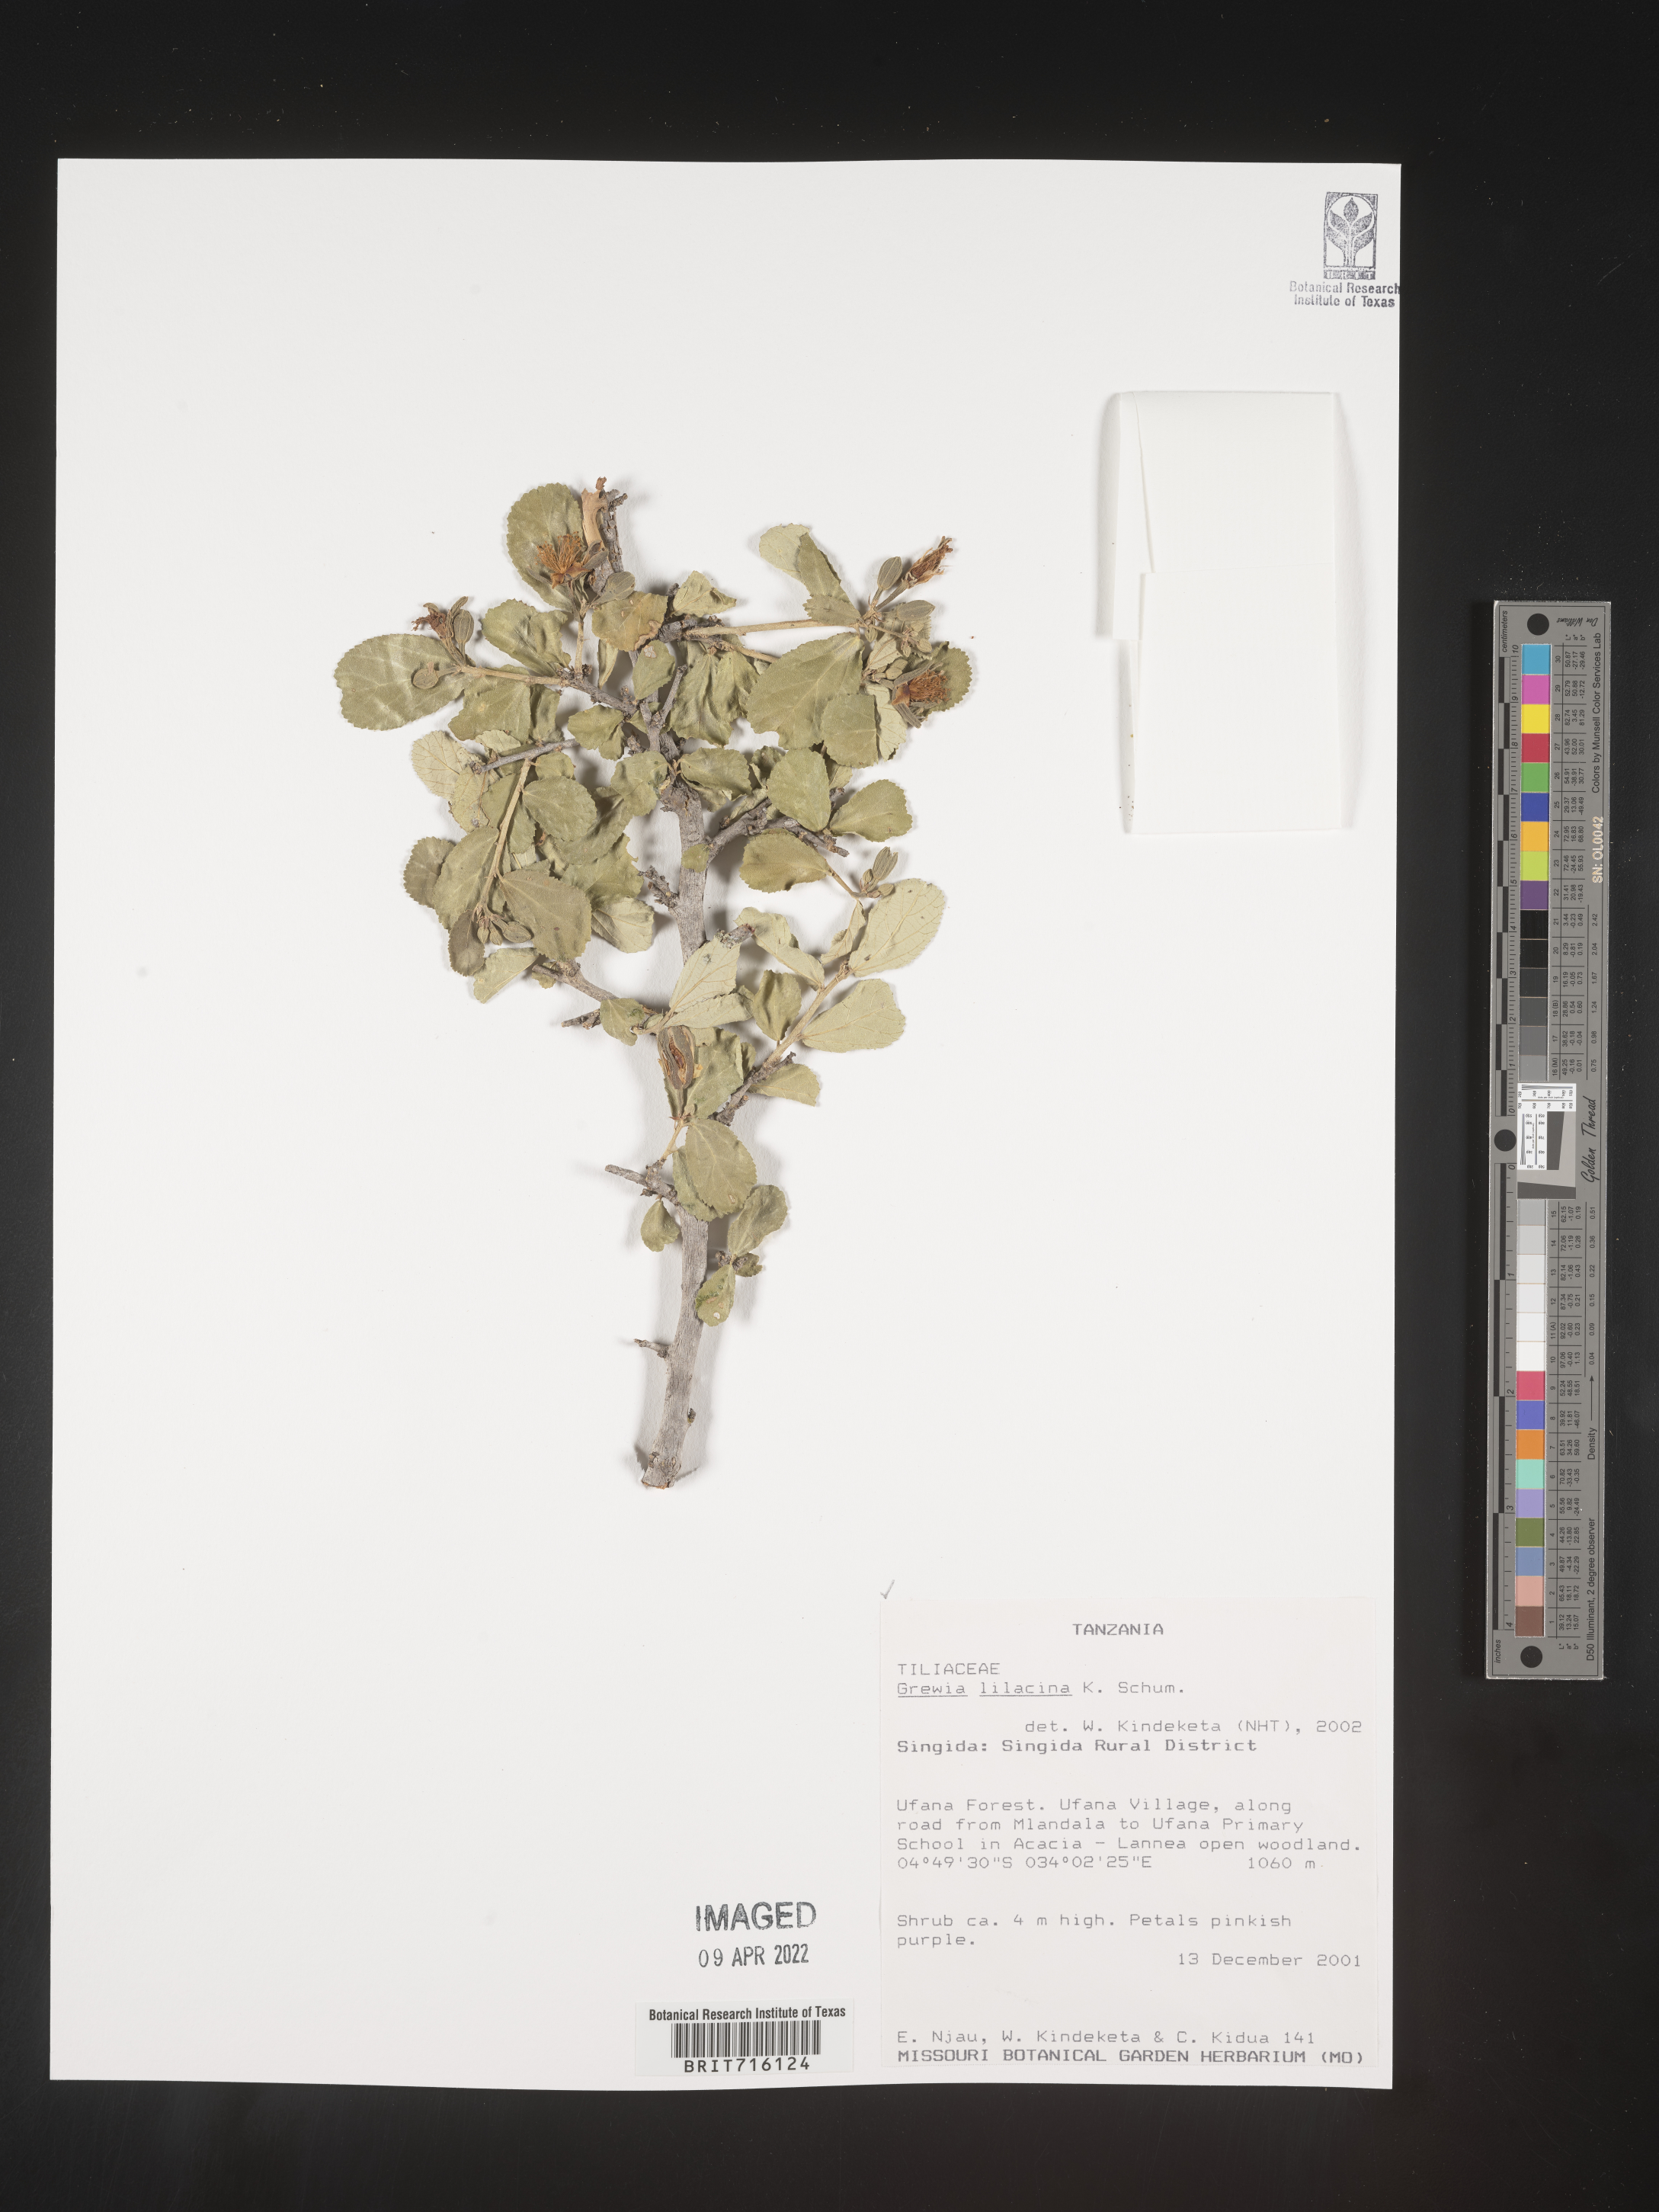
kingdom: Plantae
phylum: Tracheophyta
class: Magnoliopsida
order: Malvales
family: Malvaceae
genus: Grewia
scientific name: Grewia
